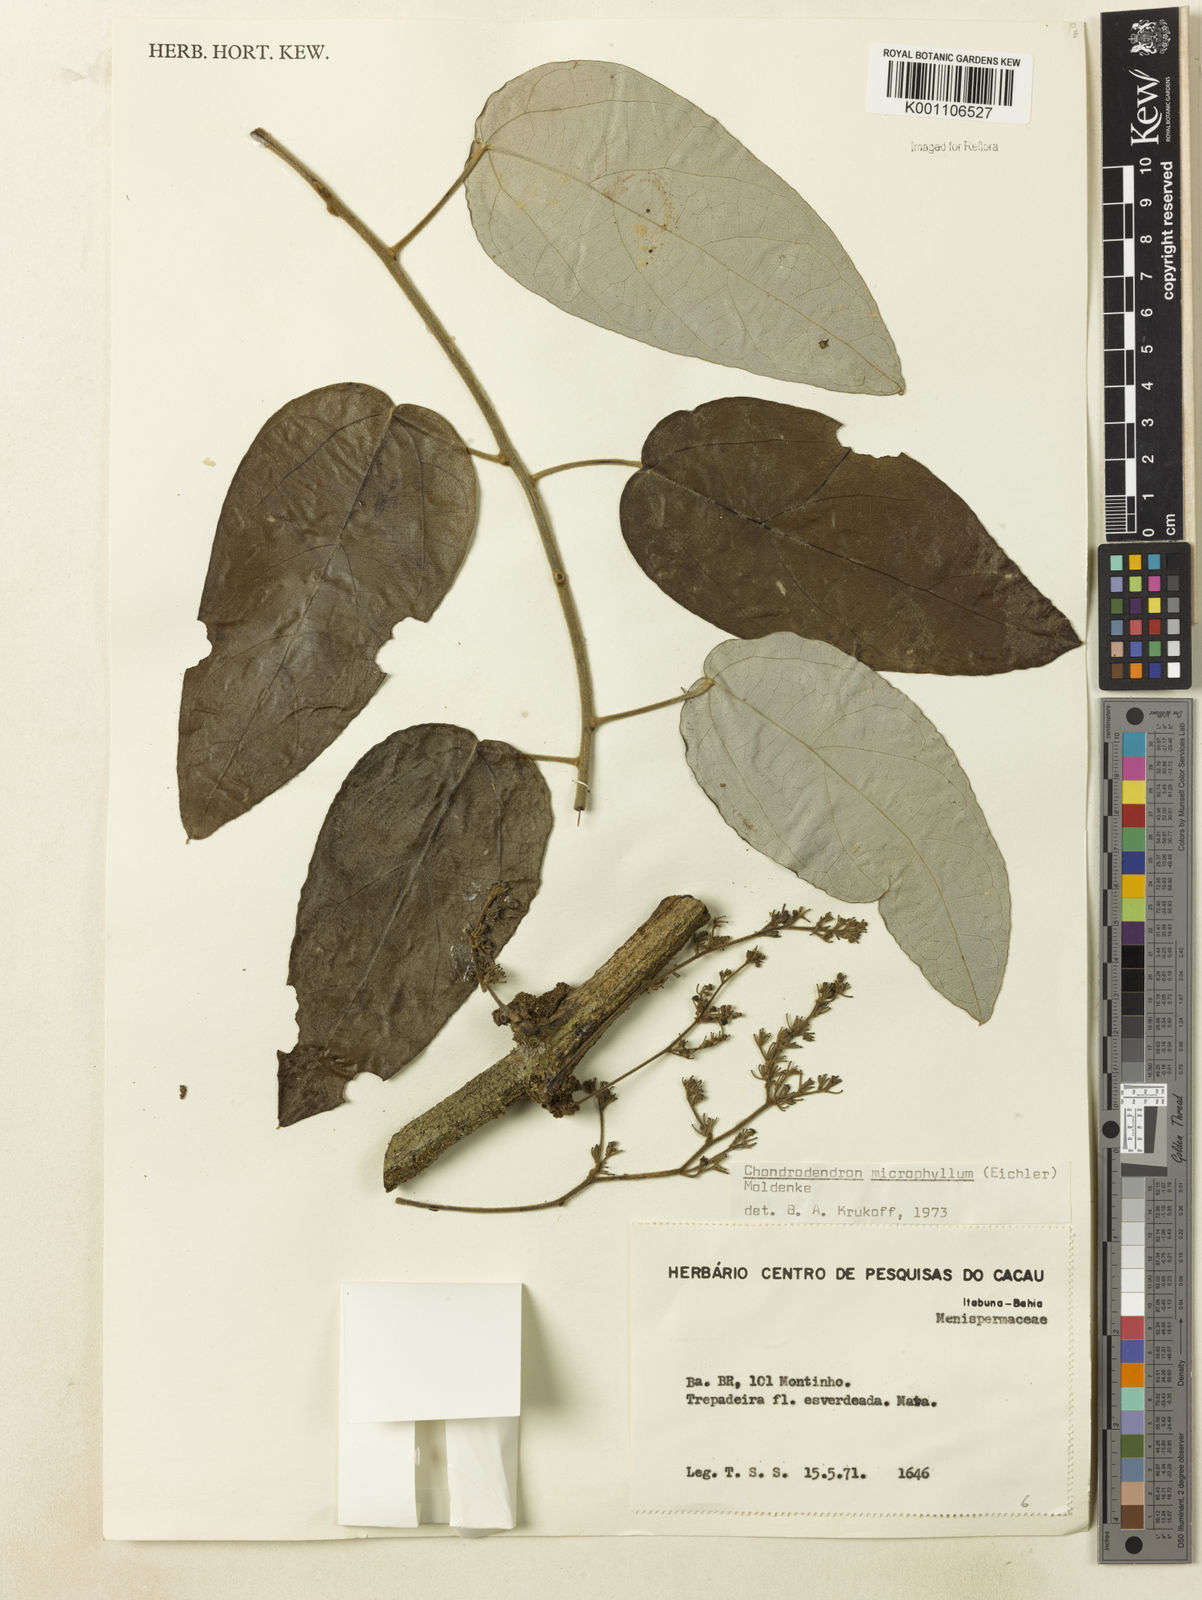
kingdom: Plantae
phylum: Tracheophyta
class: Magnoliopsida
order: Ranunculales
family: Menispermaceae
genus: Chondrodendron
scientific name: Chondrodendron microphyllum
